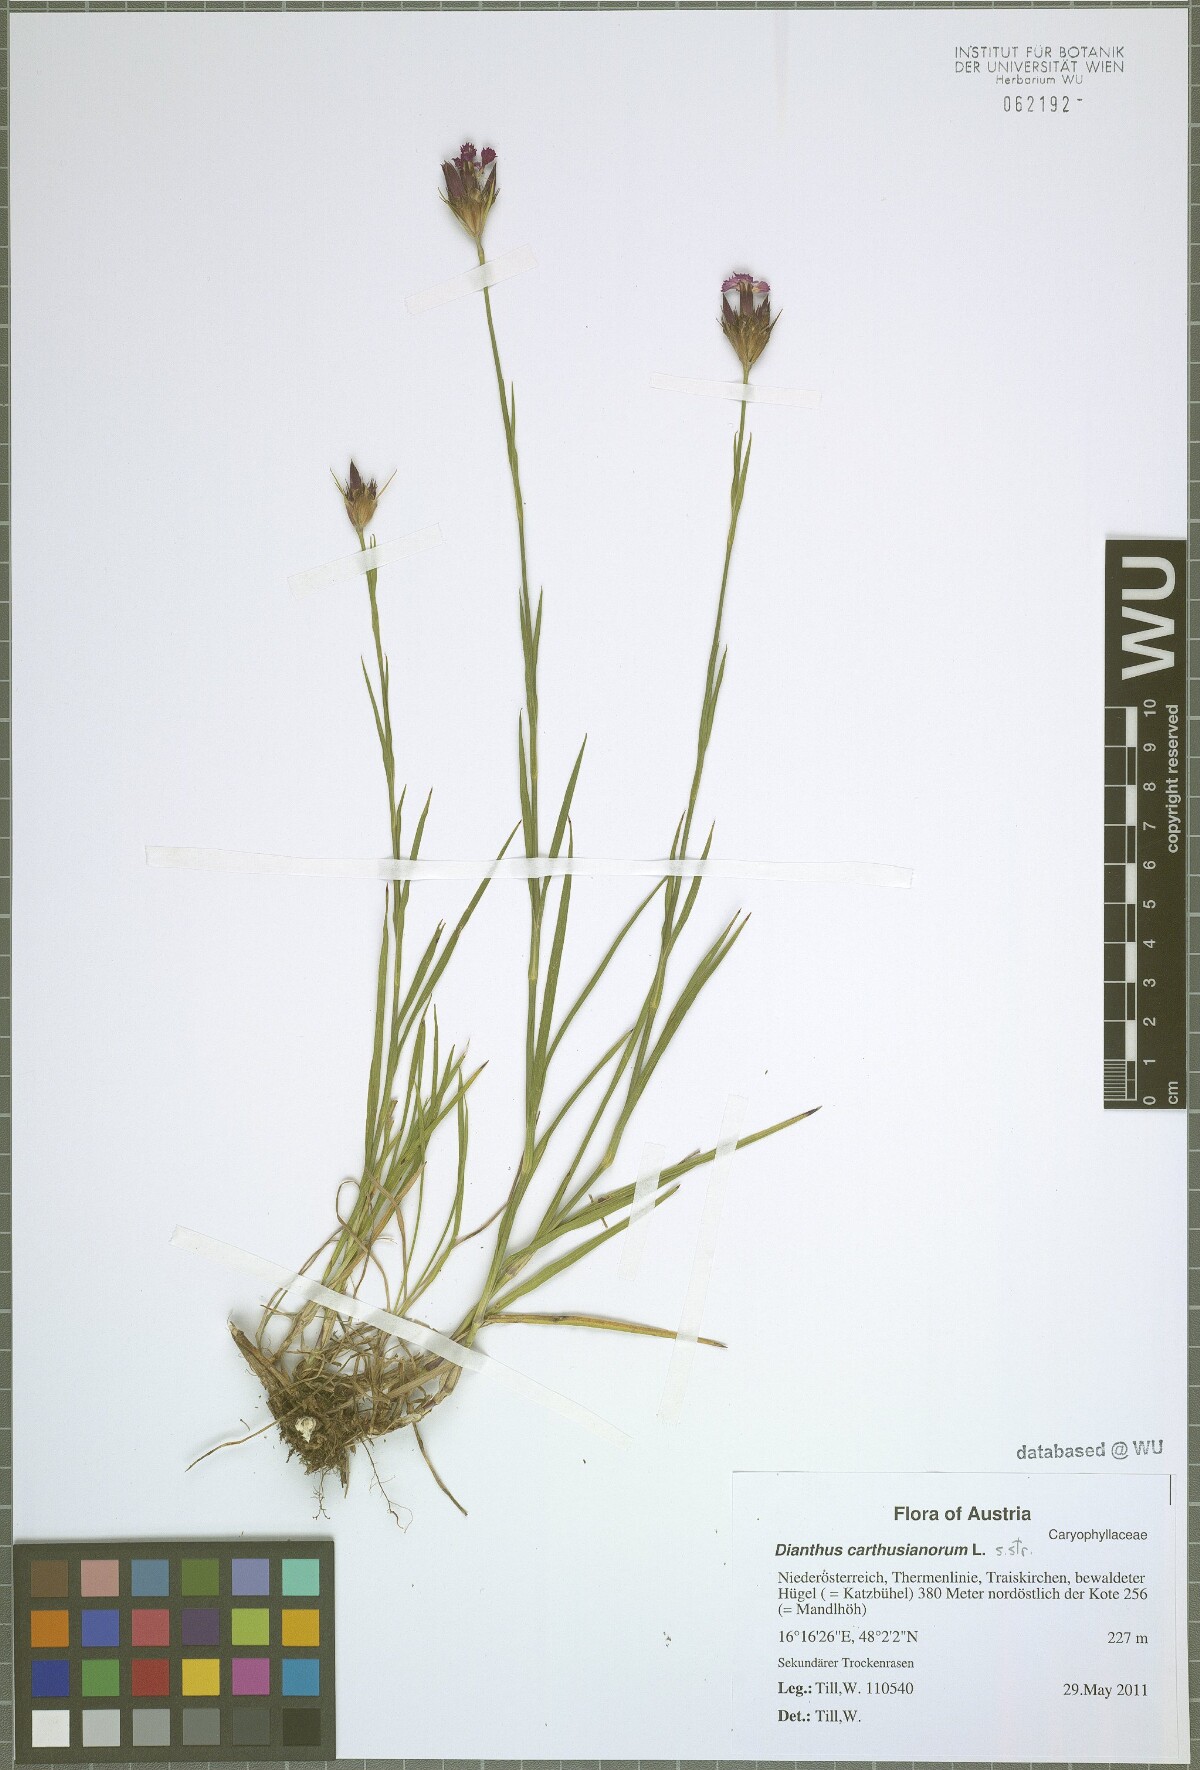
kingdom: Plantae
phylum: Tracheophyta
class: Magnoliopsida
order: Caryophyllales
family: Caryophyllaceae
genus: Dianthus
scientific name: Dianthus carthusianorum
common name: Carthusian pink
